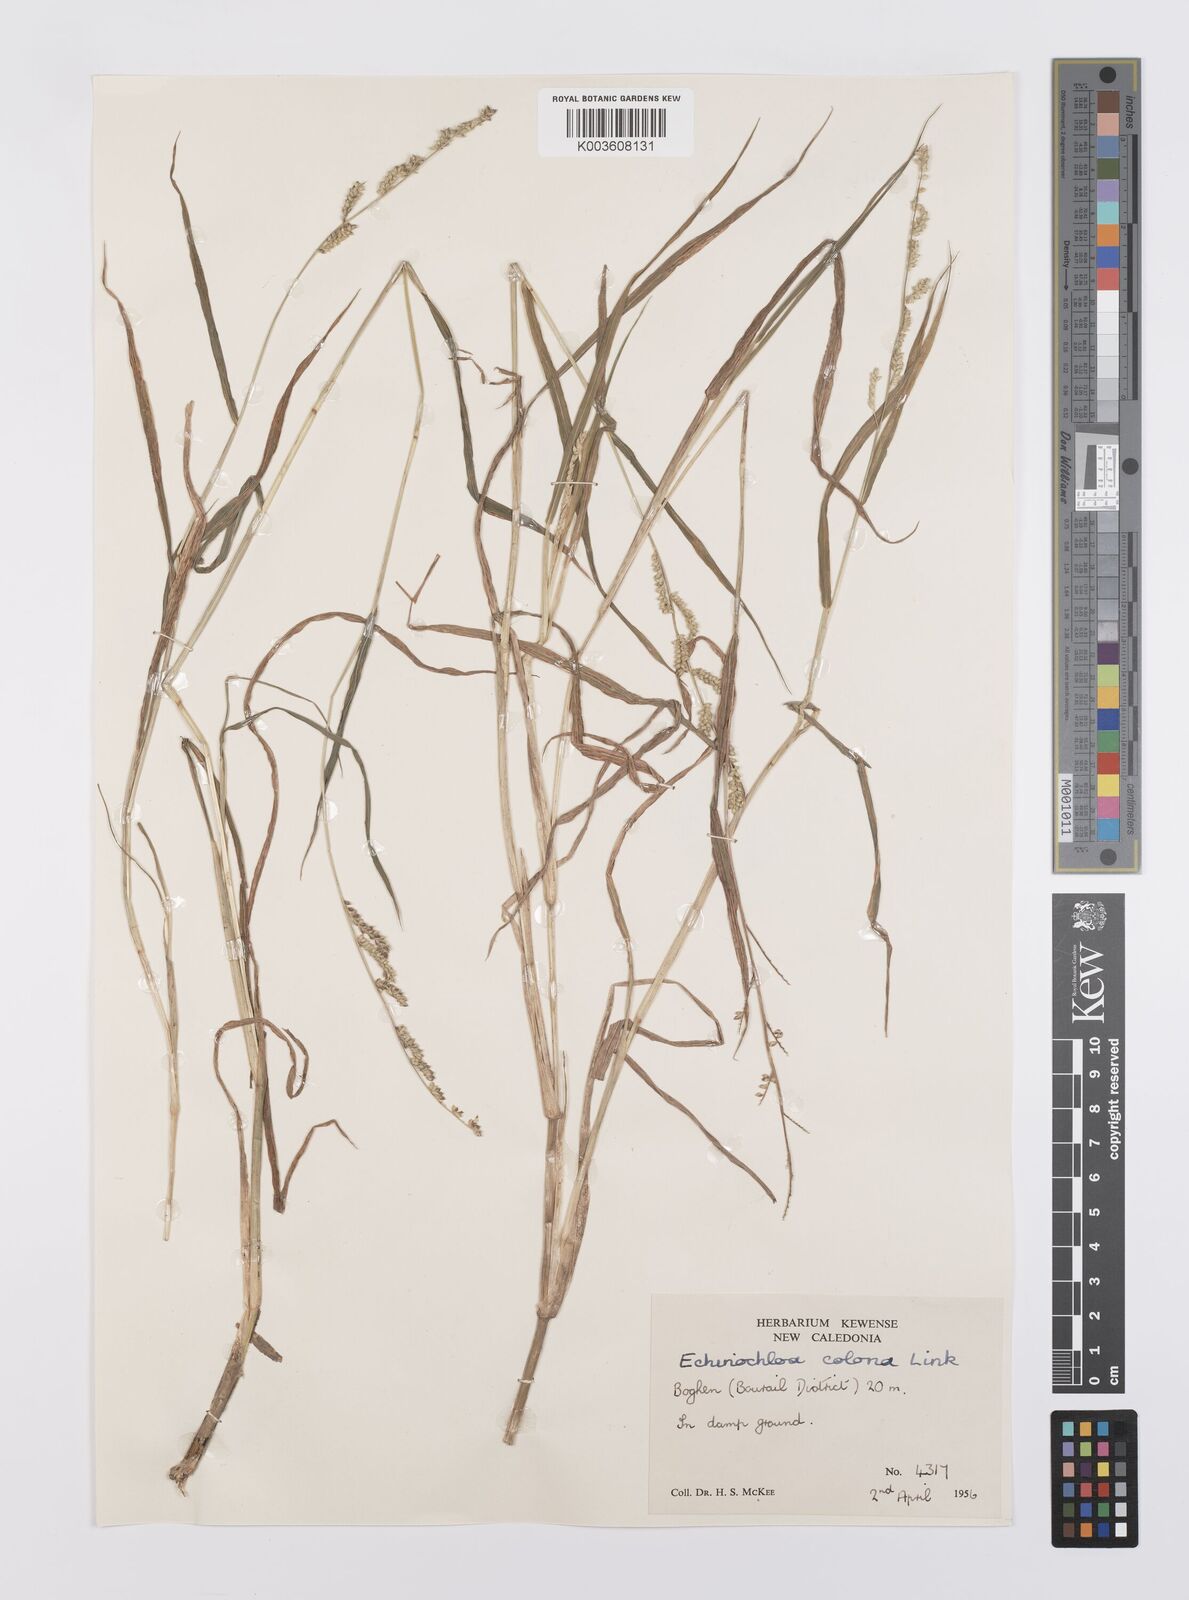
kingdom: Plantae
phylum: Tracheophyta
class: Liliopsida
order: Poales
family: Poaceae
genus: Echinochloa
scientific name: Echinochloa colonum
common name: Jungle rice
